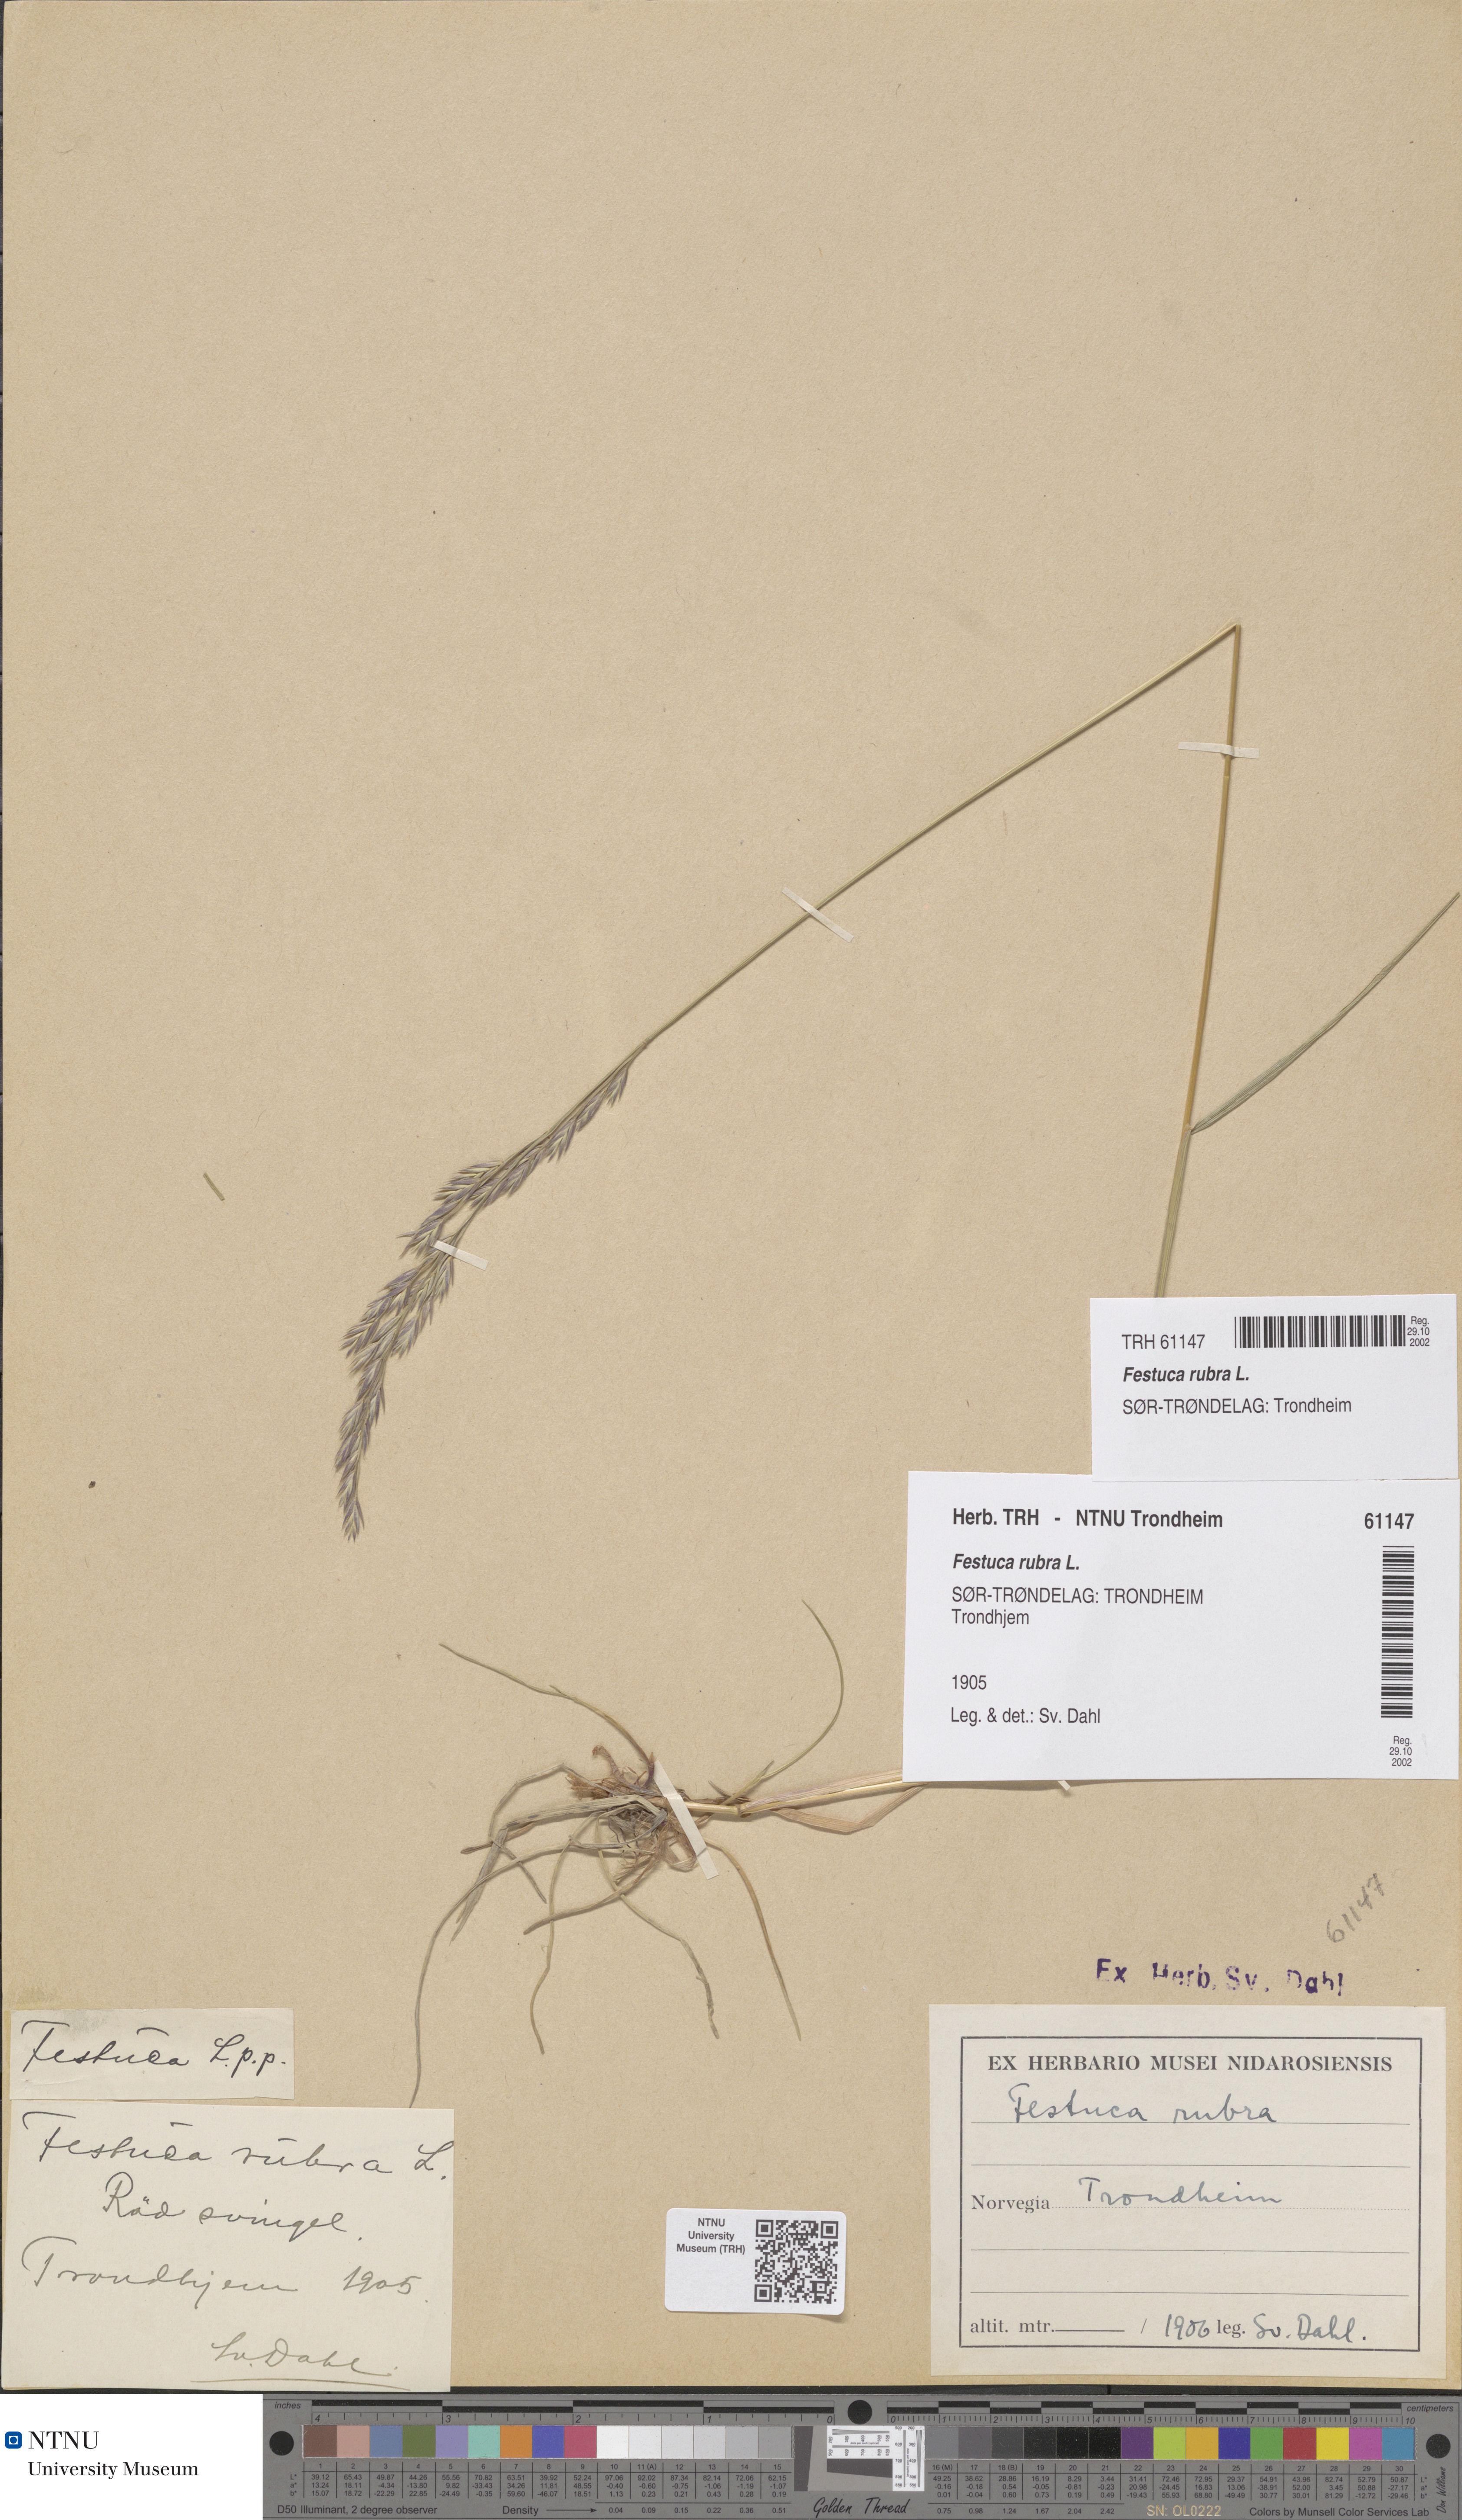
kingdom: Plantae
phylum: Tracheophyta
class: Liliopsida
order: Poales
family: Poaceae
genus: Festuca
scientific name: Festuca rubra
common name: Red fescue
